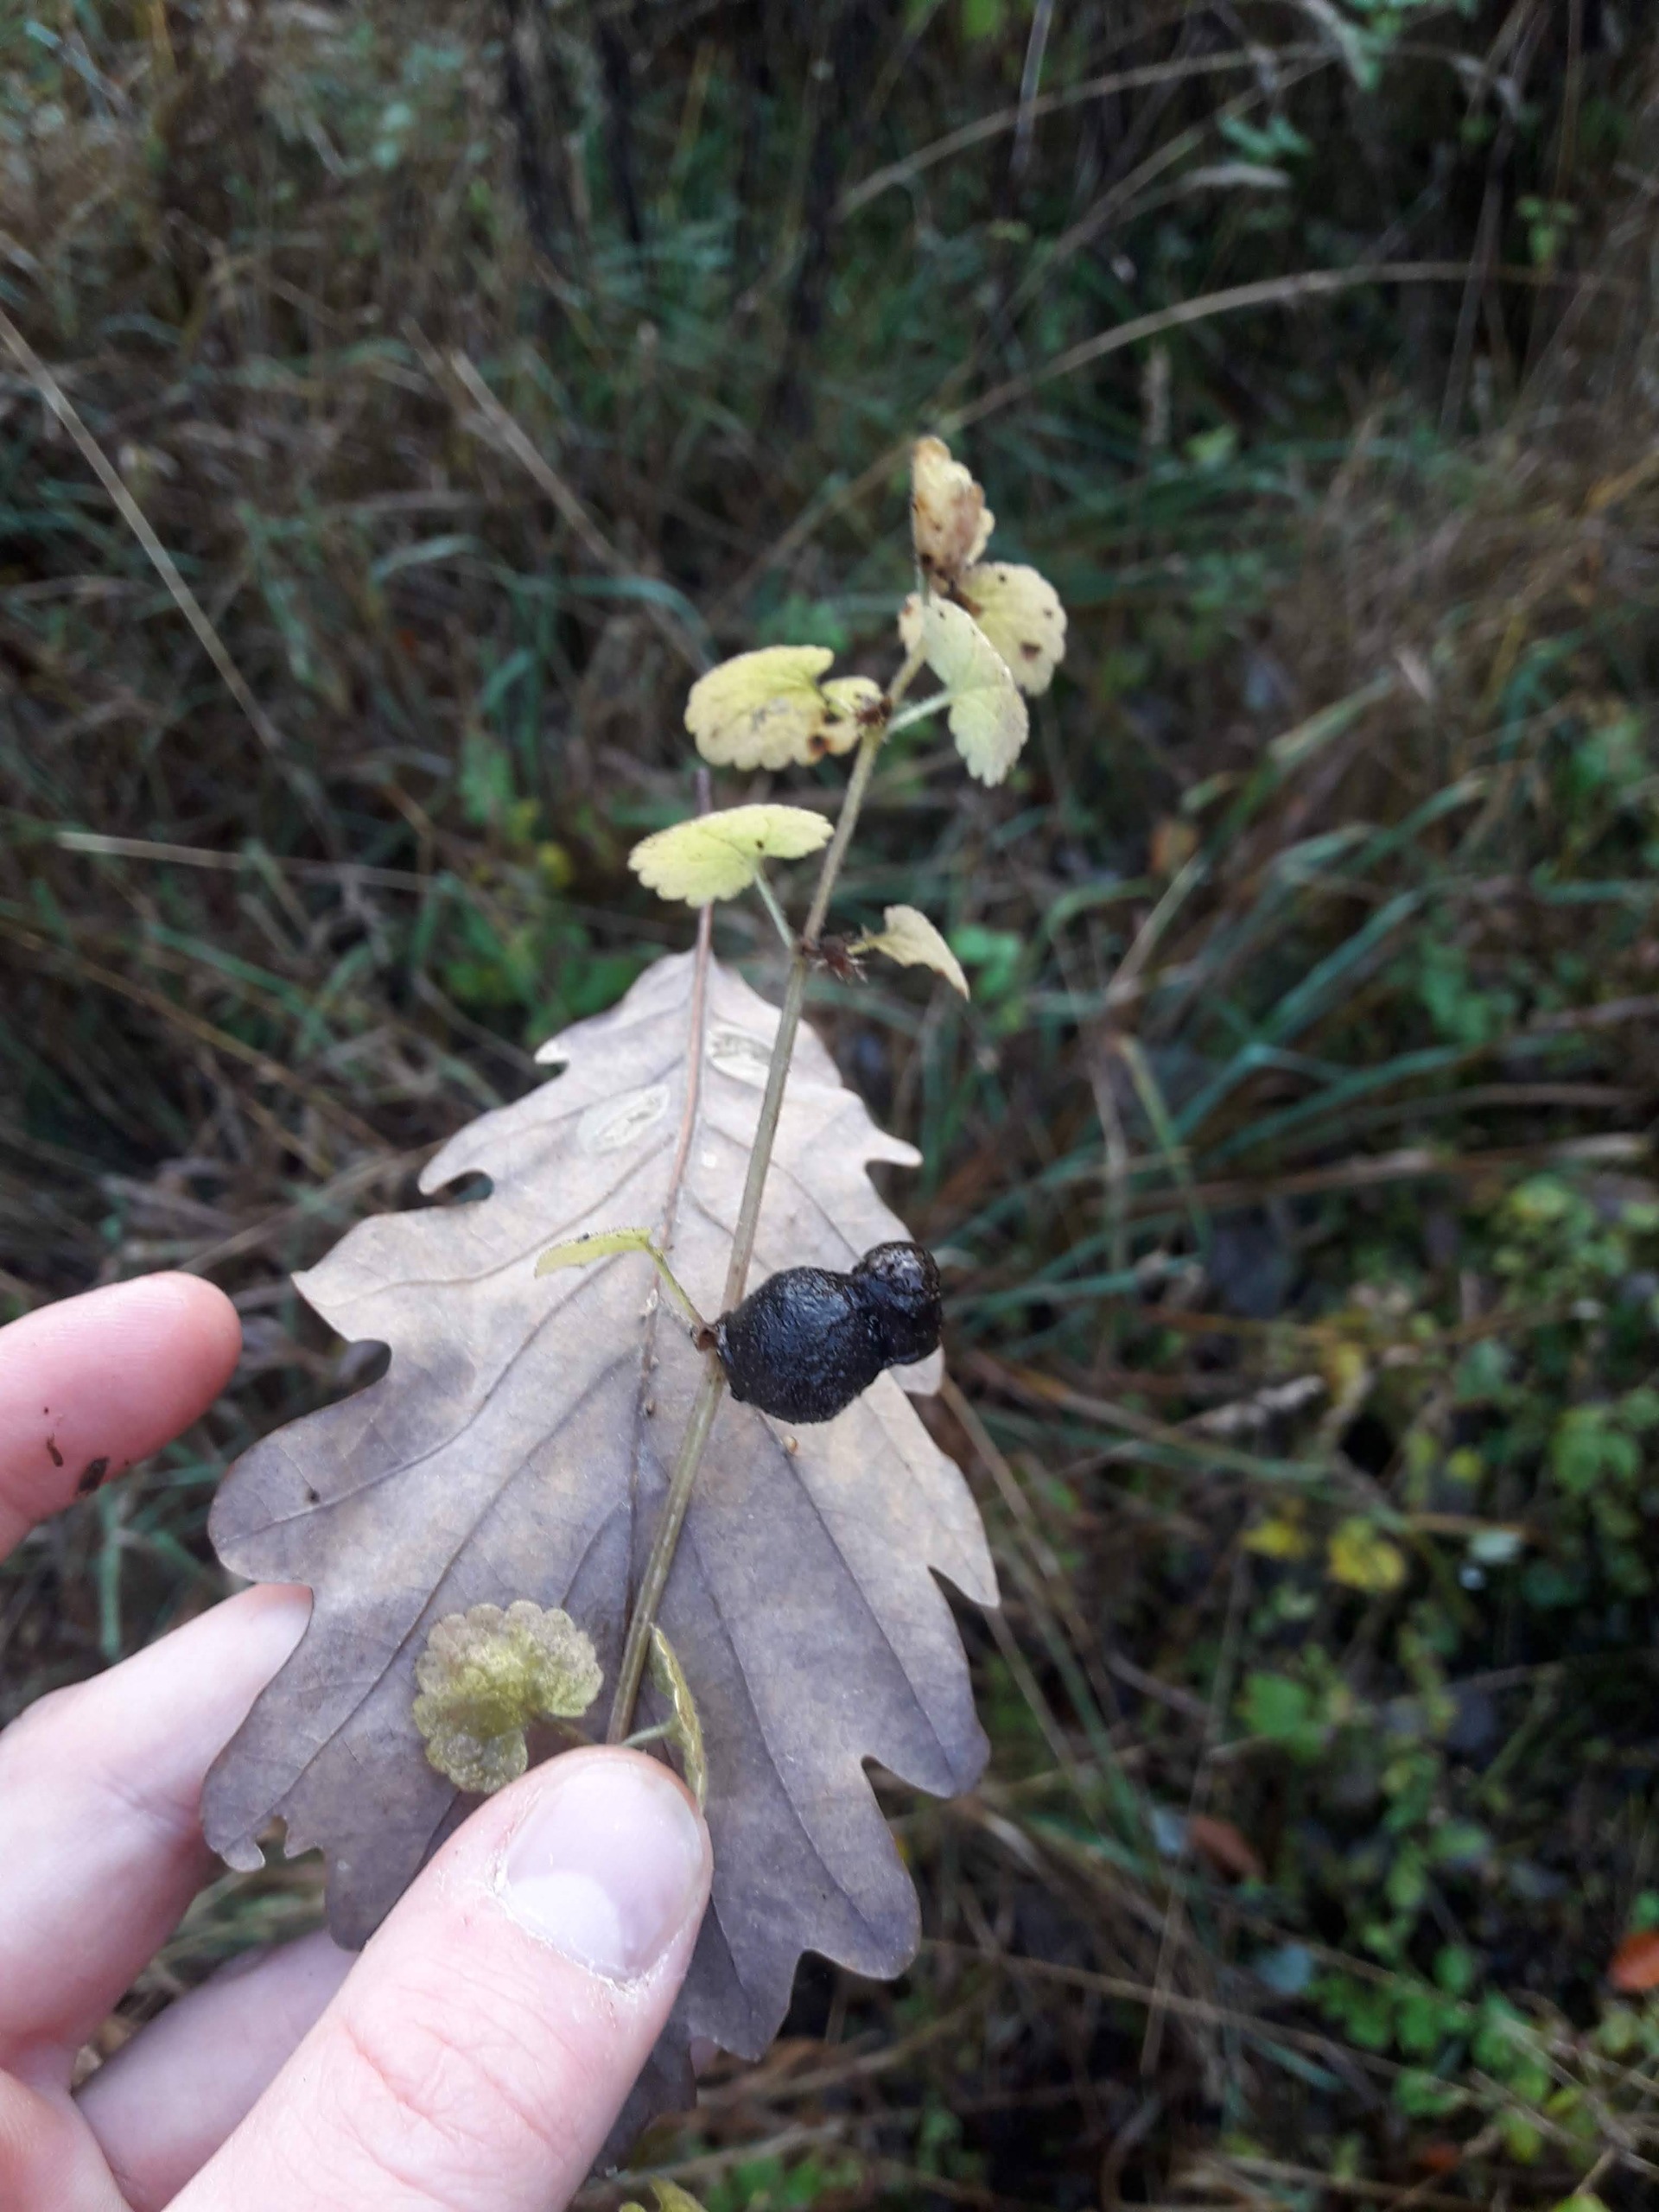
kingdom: Animalia
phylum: Arthropoda
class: Insecta
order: Hymenoptera
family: Cynipidae
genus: Liposthenes
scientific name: Liposthenes glechomae
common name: Korsknapgalhveps
